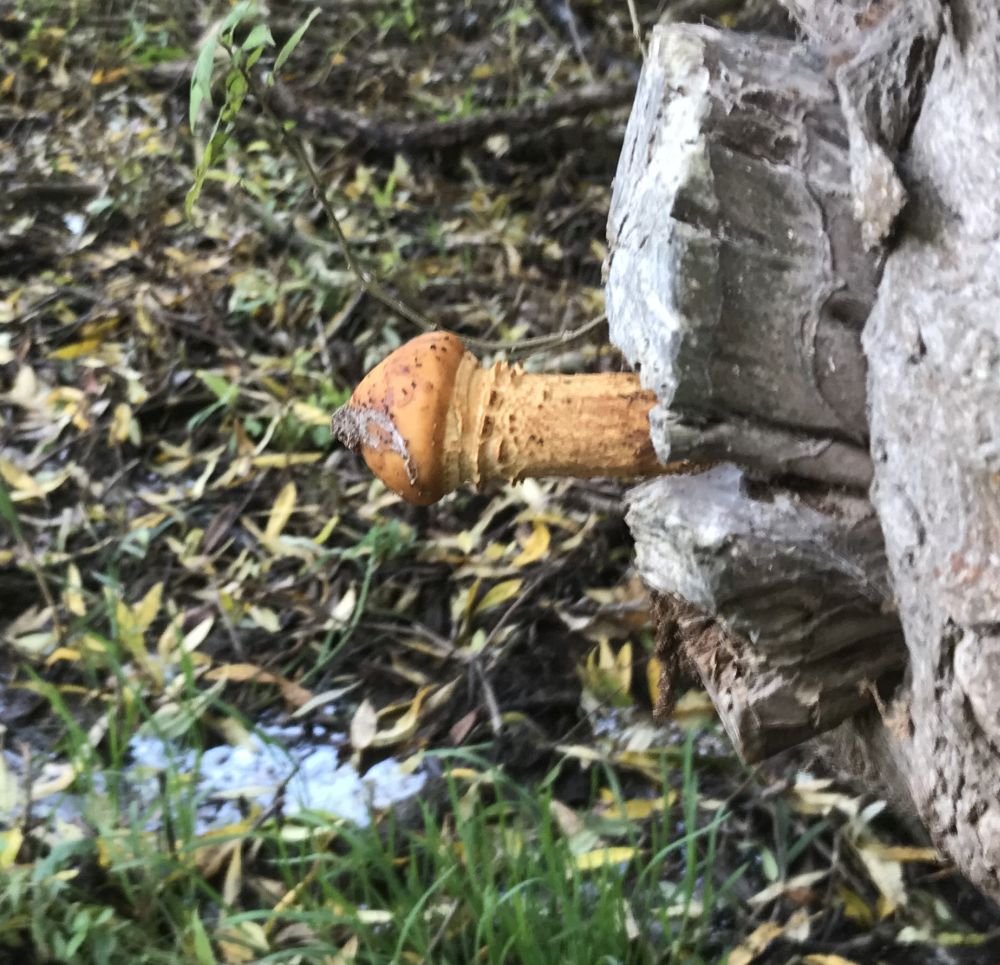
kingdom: Fungi
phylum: Basidiomycota
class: Agaricomycetes
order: Agaricales
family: Strophariaceae
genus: Pholiota
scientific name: Pholiota aurivella
